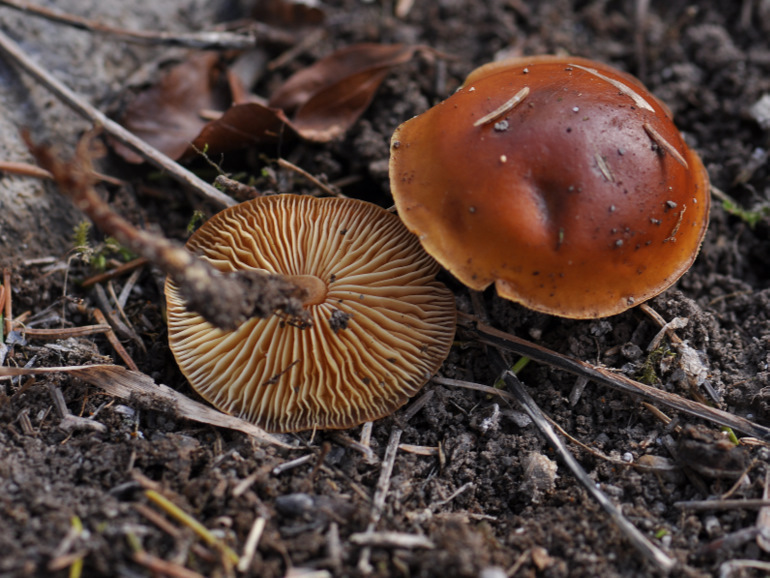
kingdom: Fungi
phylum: Basidiomycota
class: Agaricomycetes
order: Agaricales
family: Physalacriaceae
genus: Flammulina
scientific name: Flammulina velutipes
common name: gul fløjlsfod
